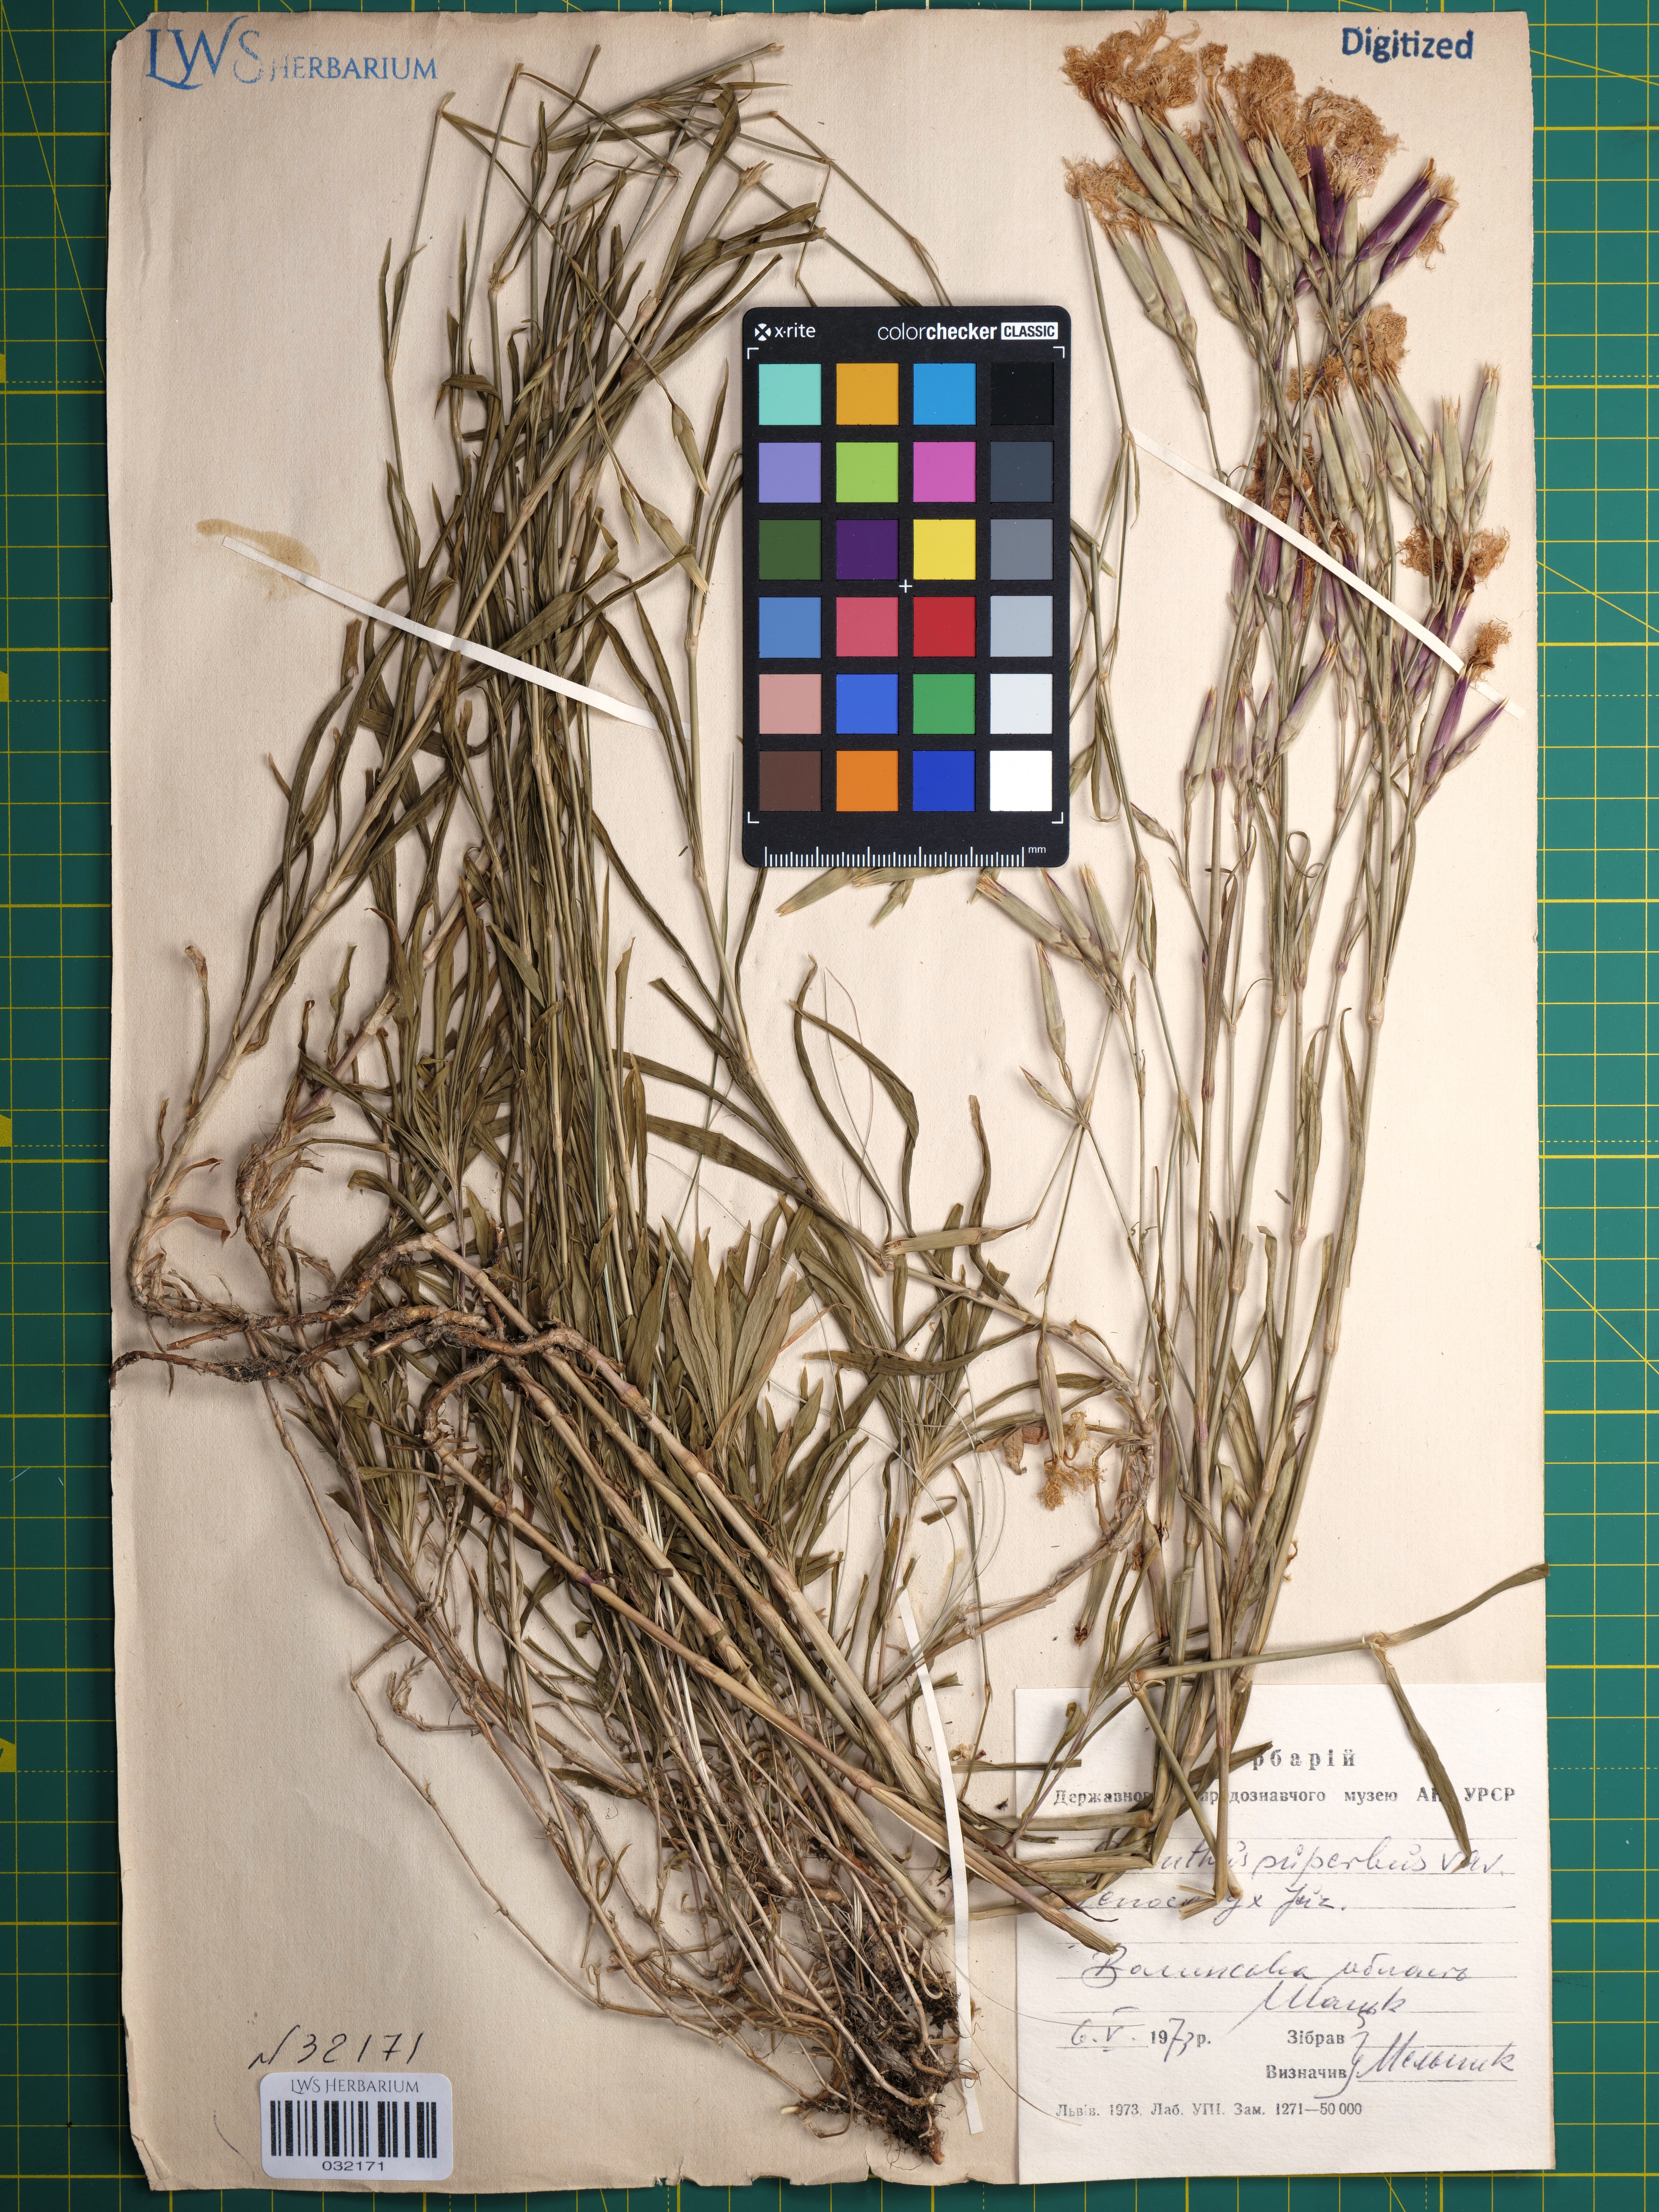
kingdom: Plantae
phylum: Tracheophyta
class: Magnoliopsida
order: Caryophyllales
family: Caryophyllaceae
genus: Dianthus
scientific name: Dianthus superbus
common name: Fringed pink
